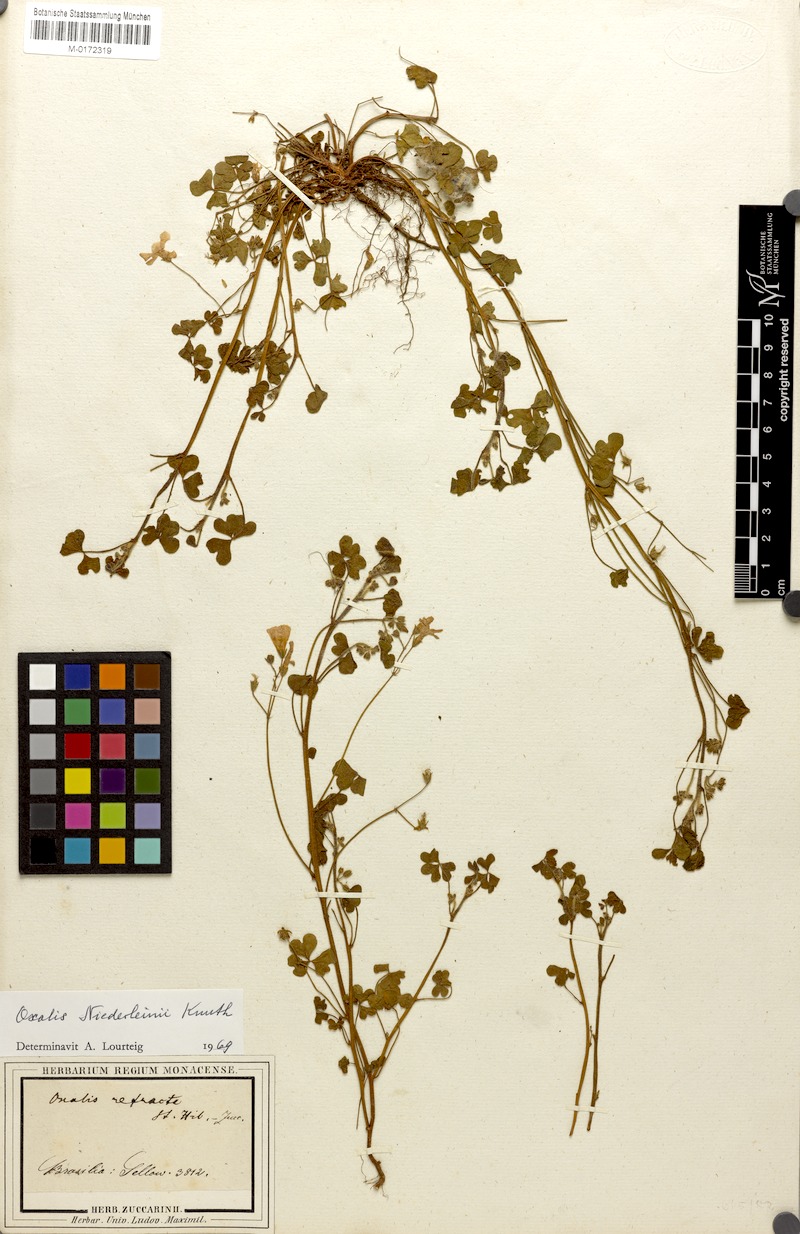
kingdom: Plantae
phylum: Tracheophyta
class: Magnoliopsida
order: Oxalidales
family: Oxalidaceae
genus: Oxalis
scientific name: Oxalis niederleinii
